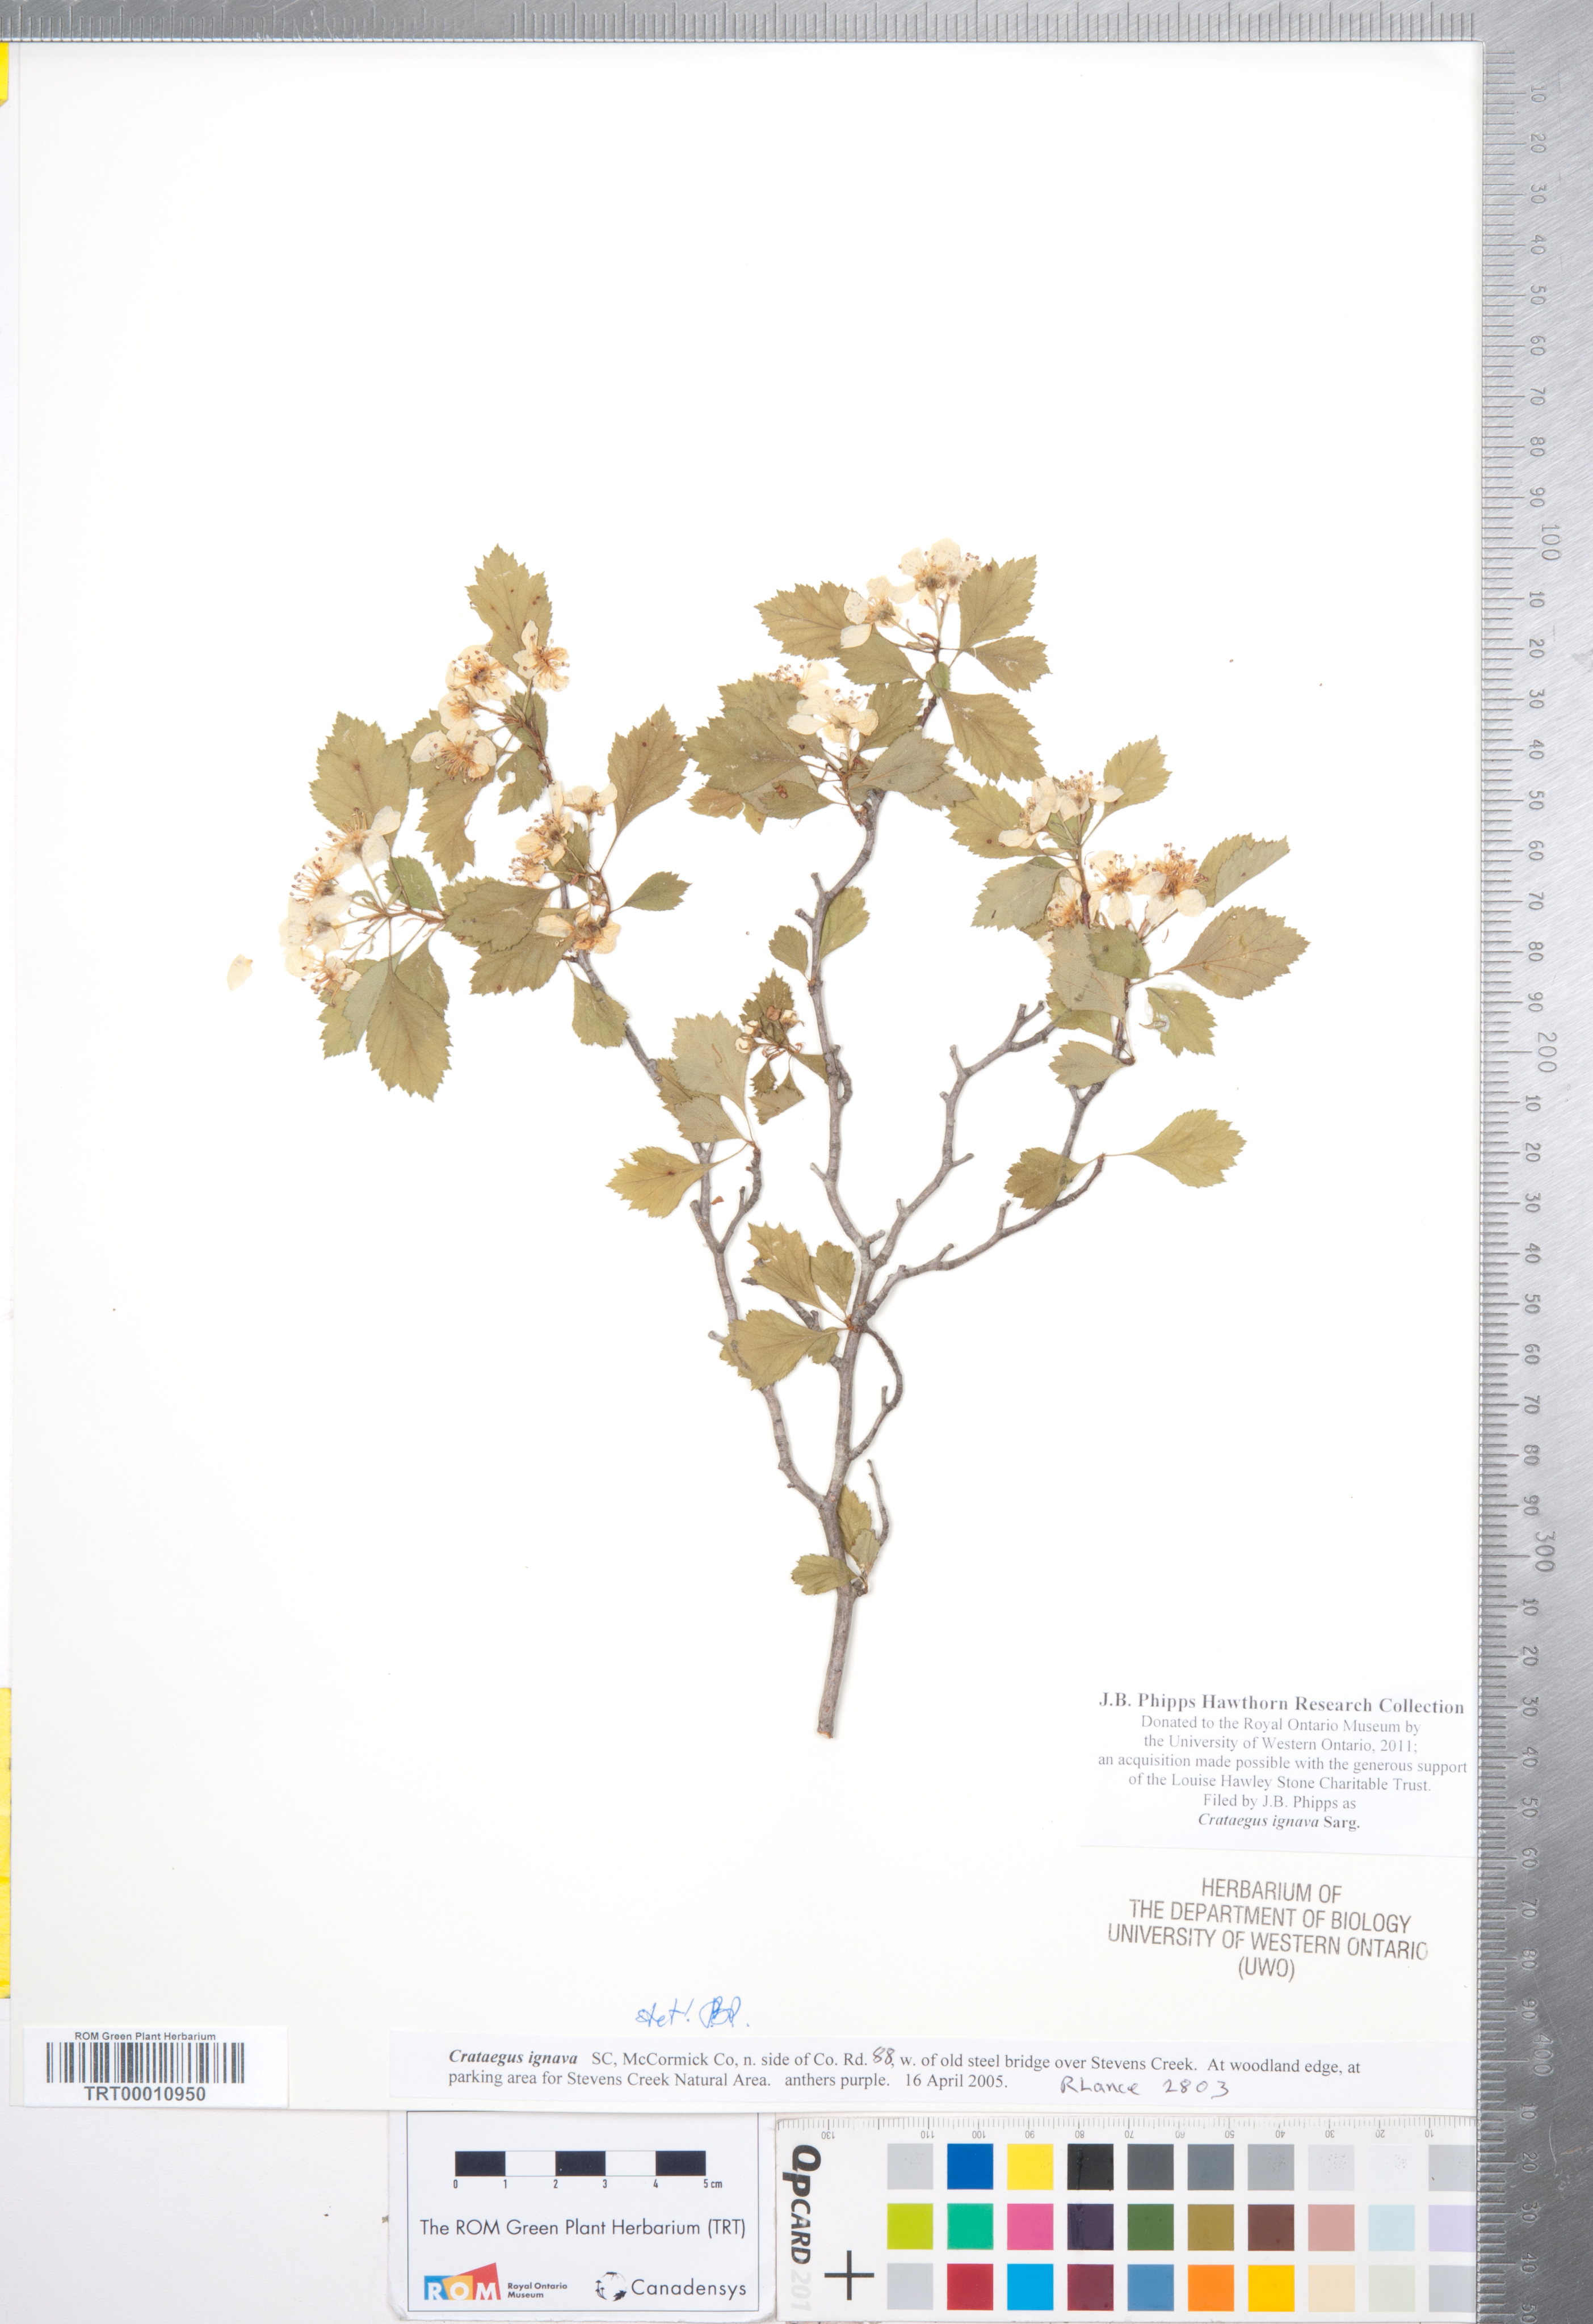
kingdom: Plantae
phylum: Tracheophyta
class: Magnoliopsida
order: Rosales
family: Rosaceae
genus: Crataegus
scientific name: Crataegus ignava
